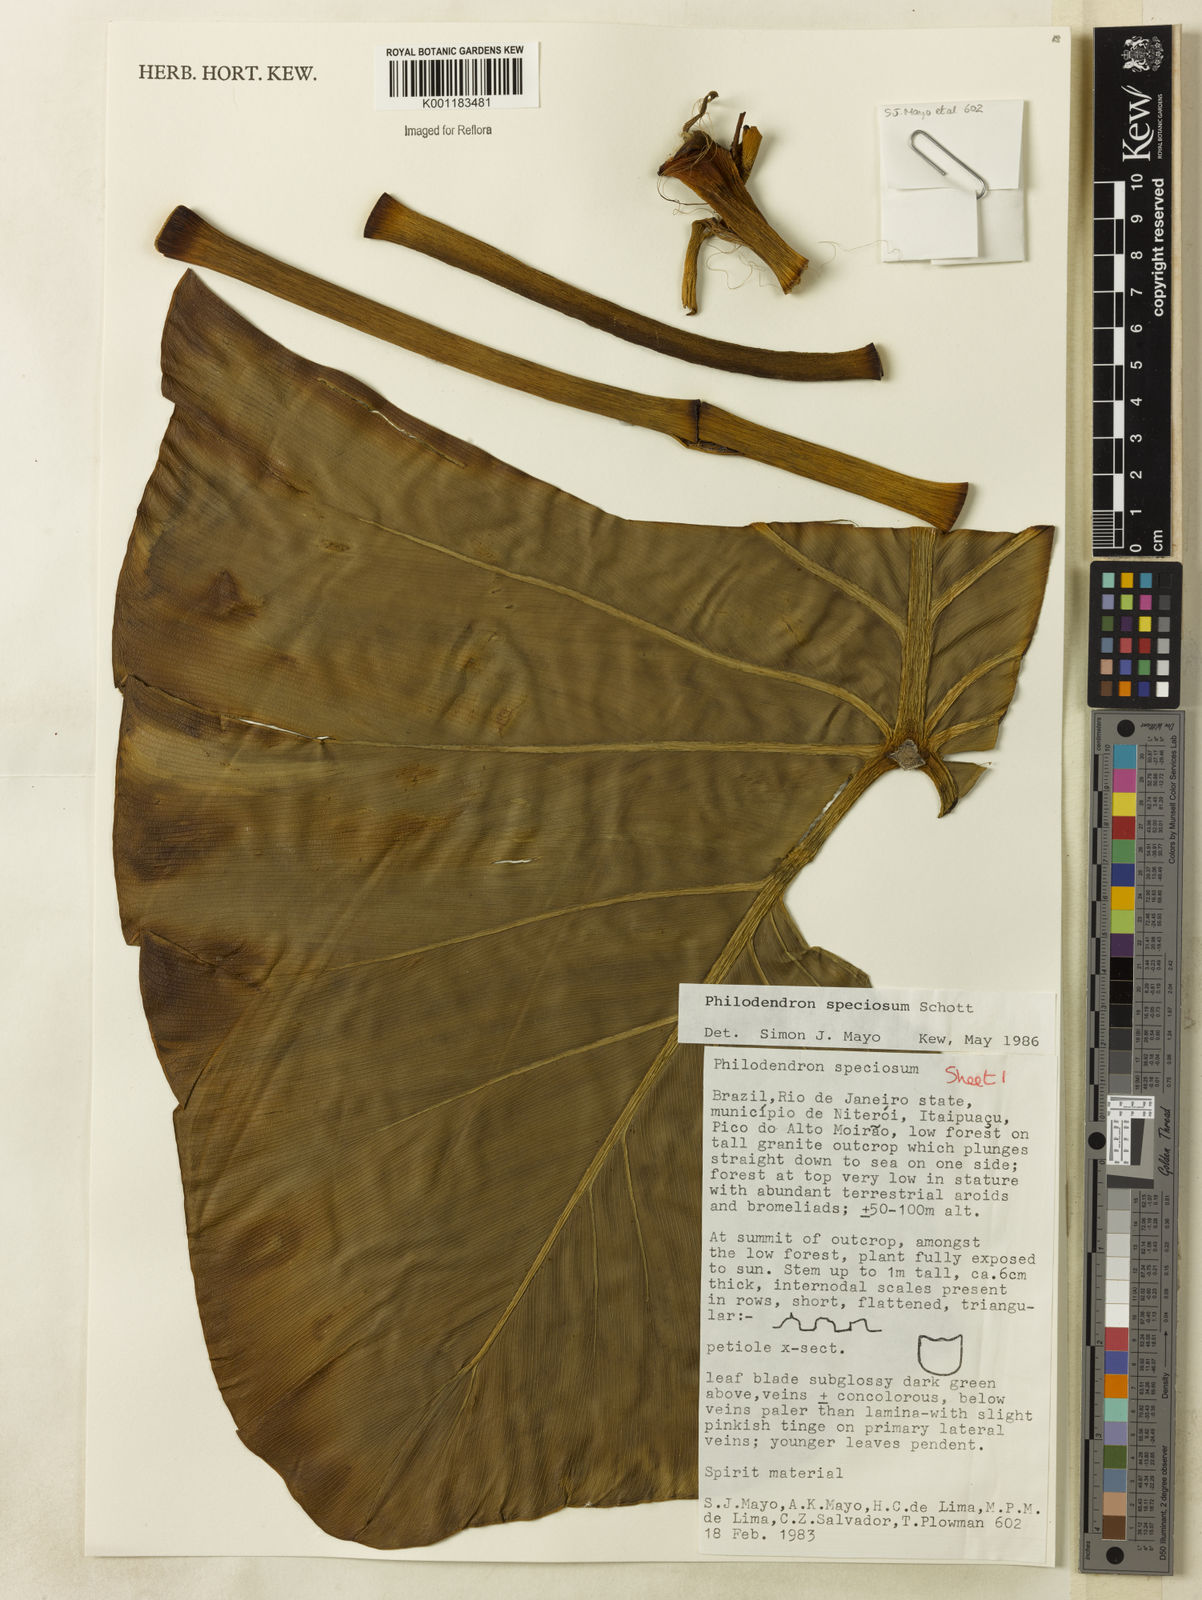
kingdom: Plantae
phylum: Tracheophyta
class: Liliopsida
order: Alismatales
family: Araceae
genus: Thaumatophyllum
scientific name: Thaumatophyllum speciosum
